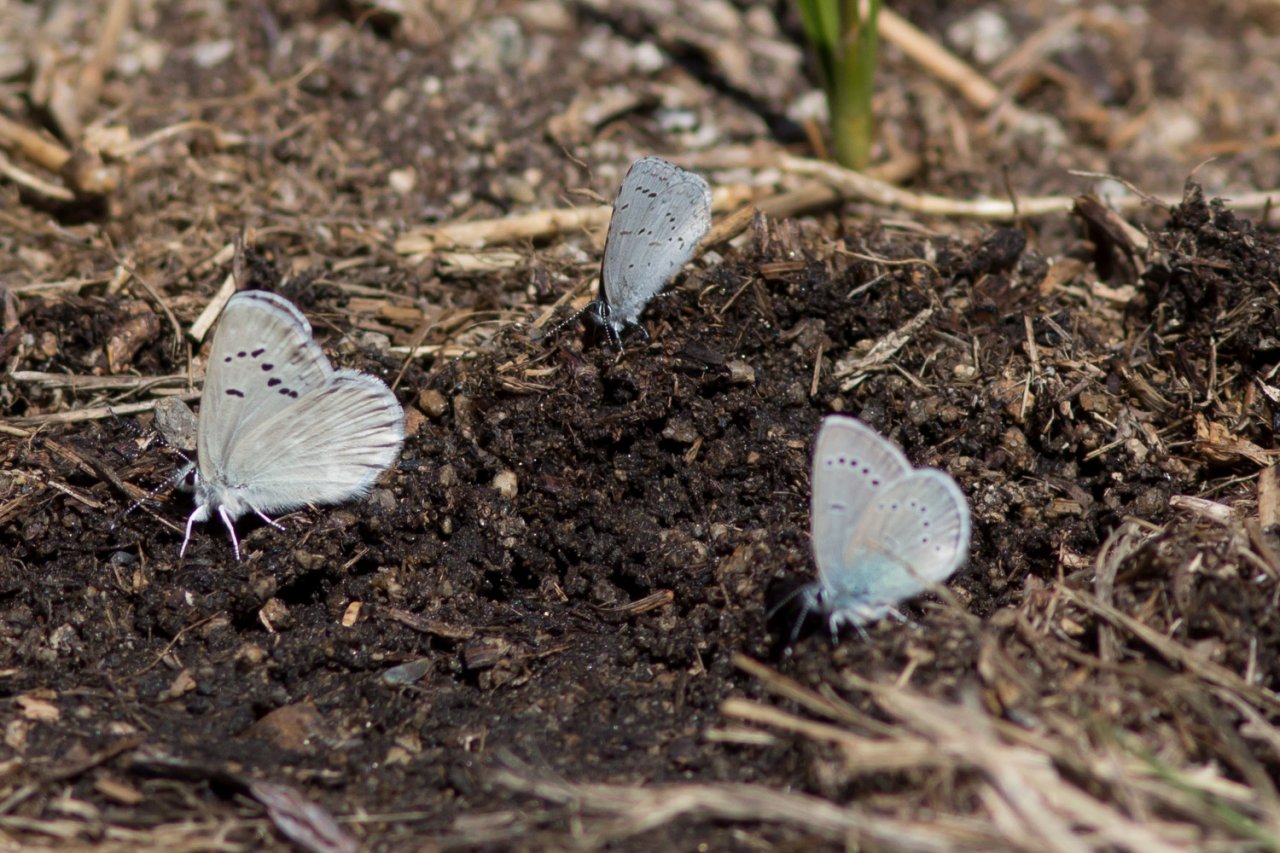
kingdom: Animalia
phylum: Arthropoda
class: Insecta
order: Lepidoptera
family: Lycaenidae
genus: Icaricia
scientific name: Icaricia icarioides
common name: Boisduval's Blue
